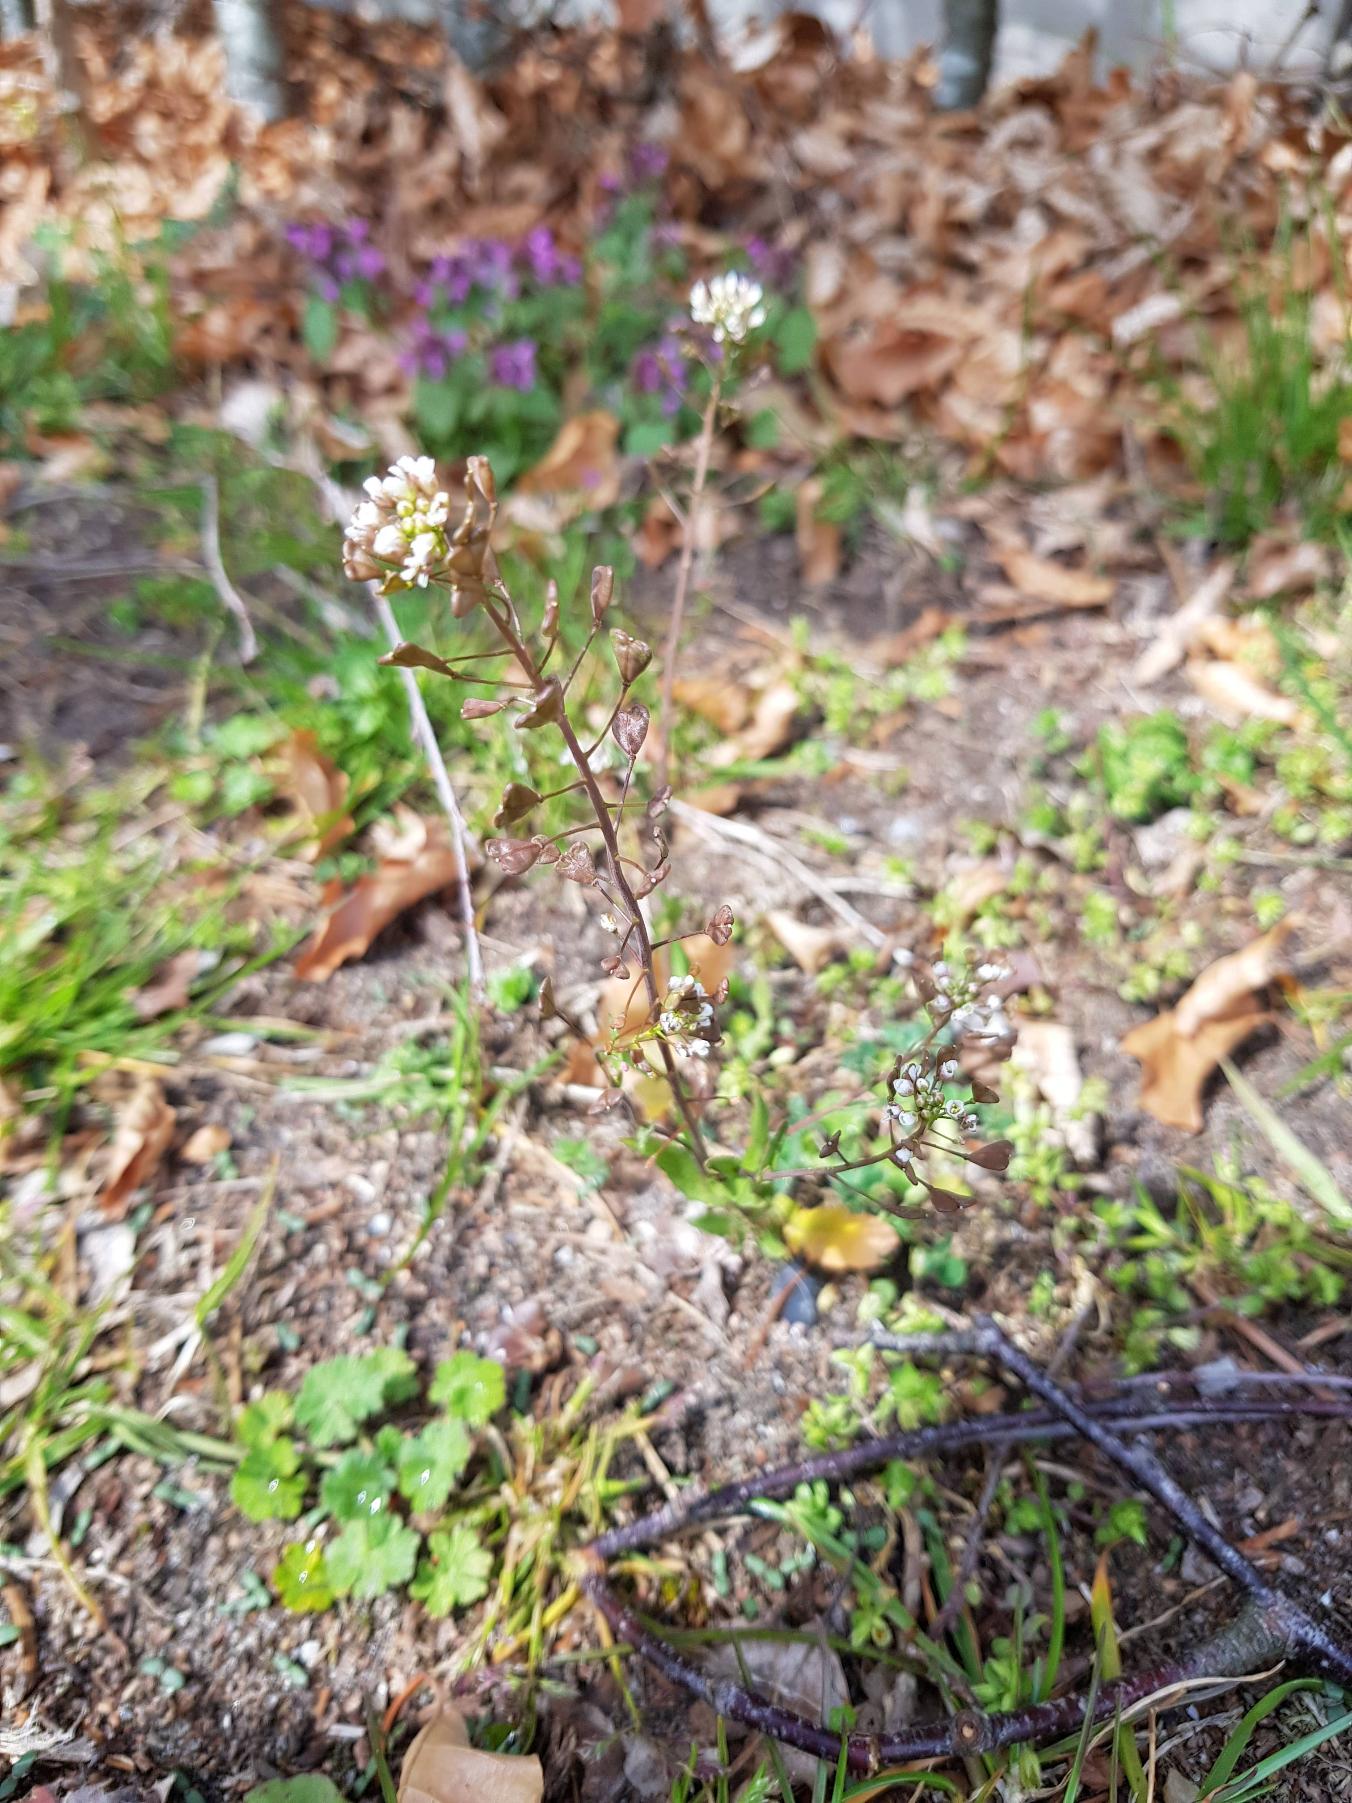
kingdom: Plantae
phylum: Tracheophyta
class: Magnoliopsida
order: Brassicales
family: Brassicaceae
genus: Capsella
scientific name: Capsella
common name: Hyrdetaskeslægten
